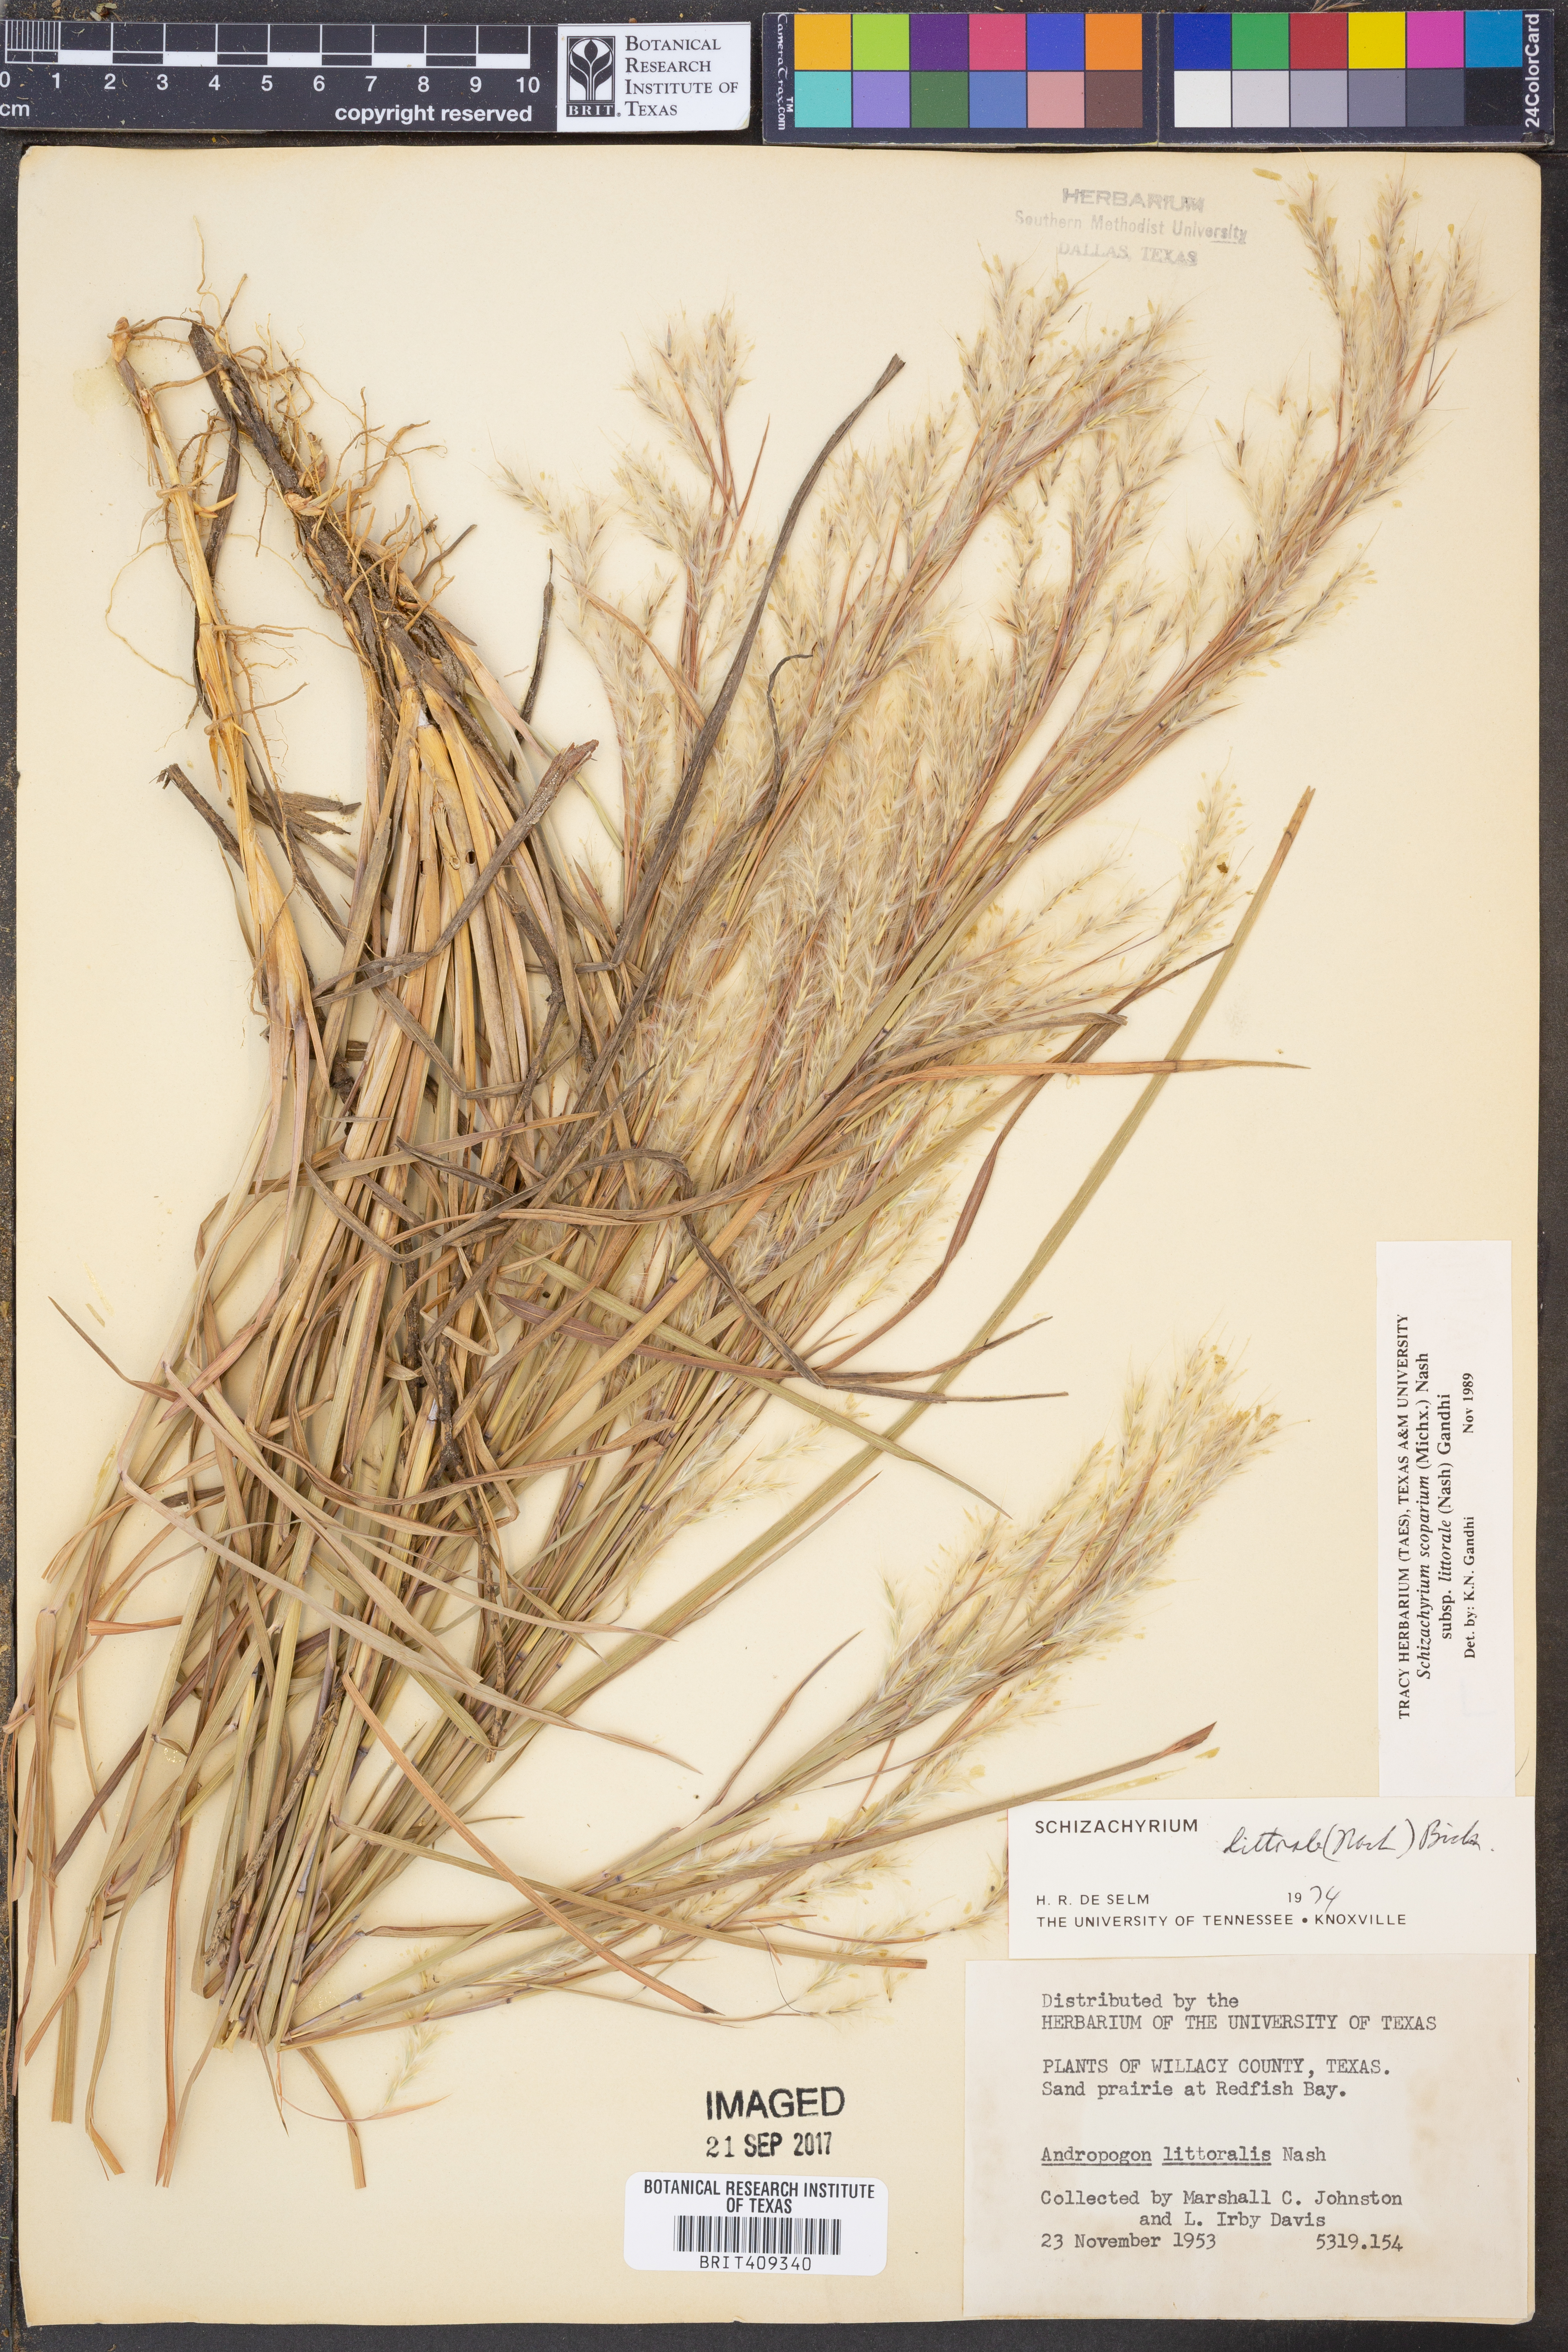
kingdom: Plantae
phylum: Tracheophyta
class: Liliopsida
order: Poales
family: Poaceae
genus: Schizachyrium
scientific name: Schizachyrium scoparium
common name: Little bluestem
